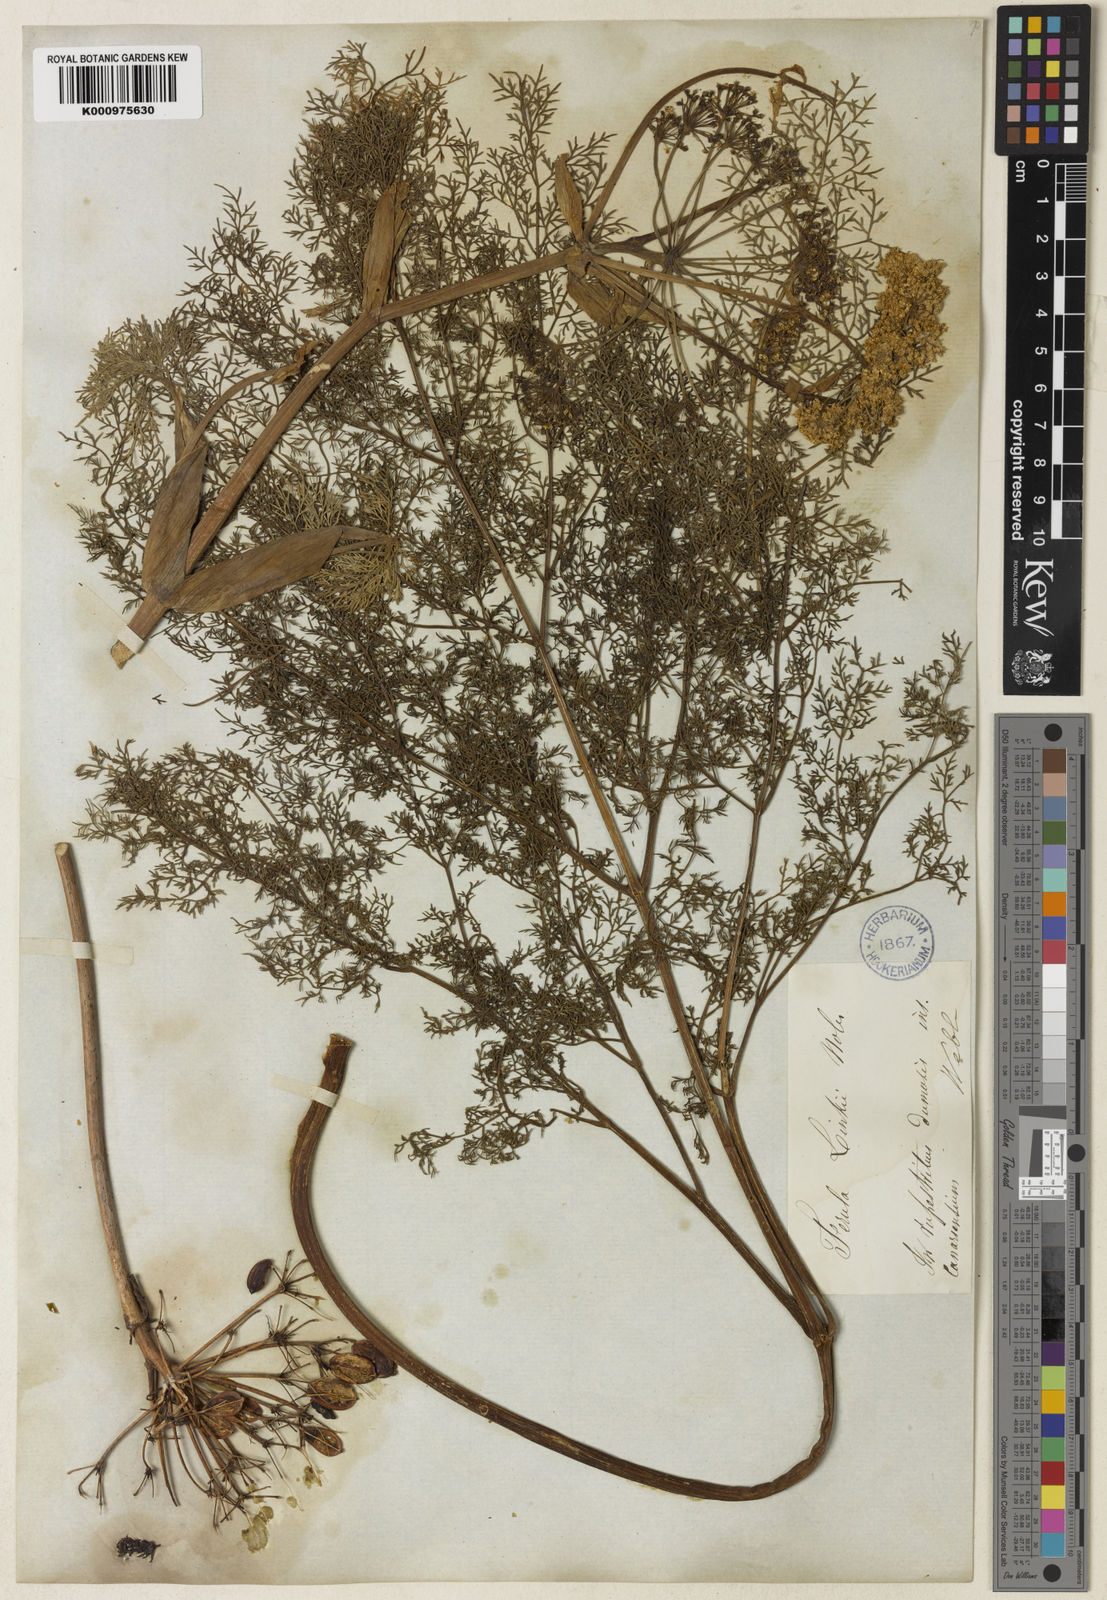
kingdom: Plantae
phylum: Tracheophyta
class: Magnoliopsida
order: Apiales
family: Apiaceae
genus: Ferula
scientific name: Ferula communis
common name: Giant fennel
